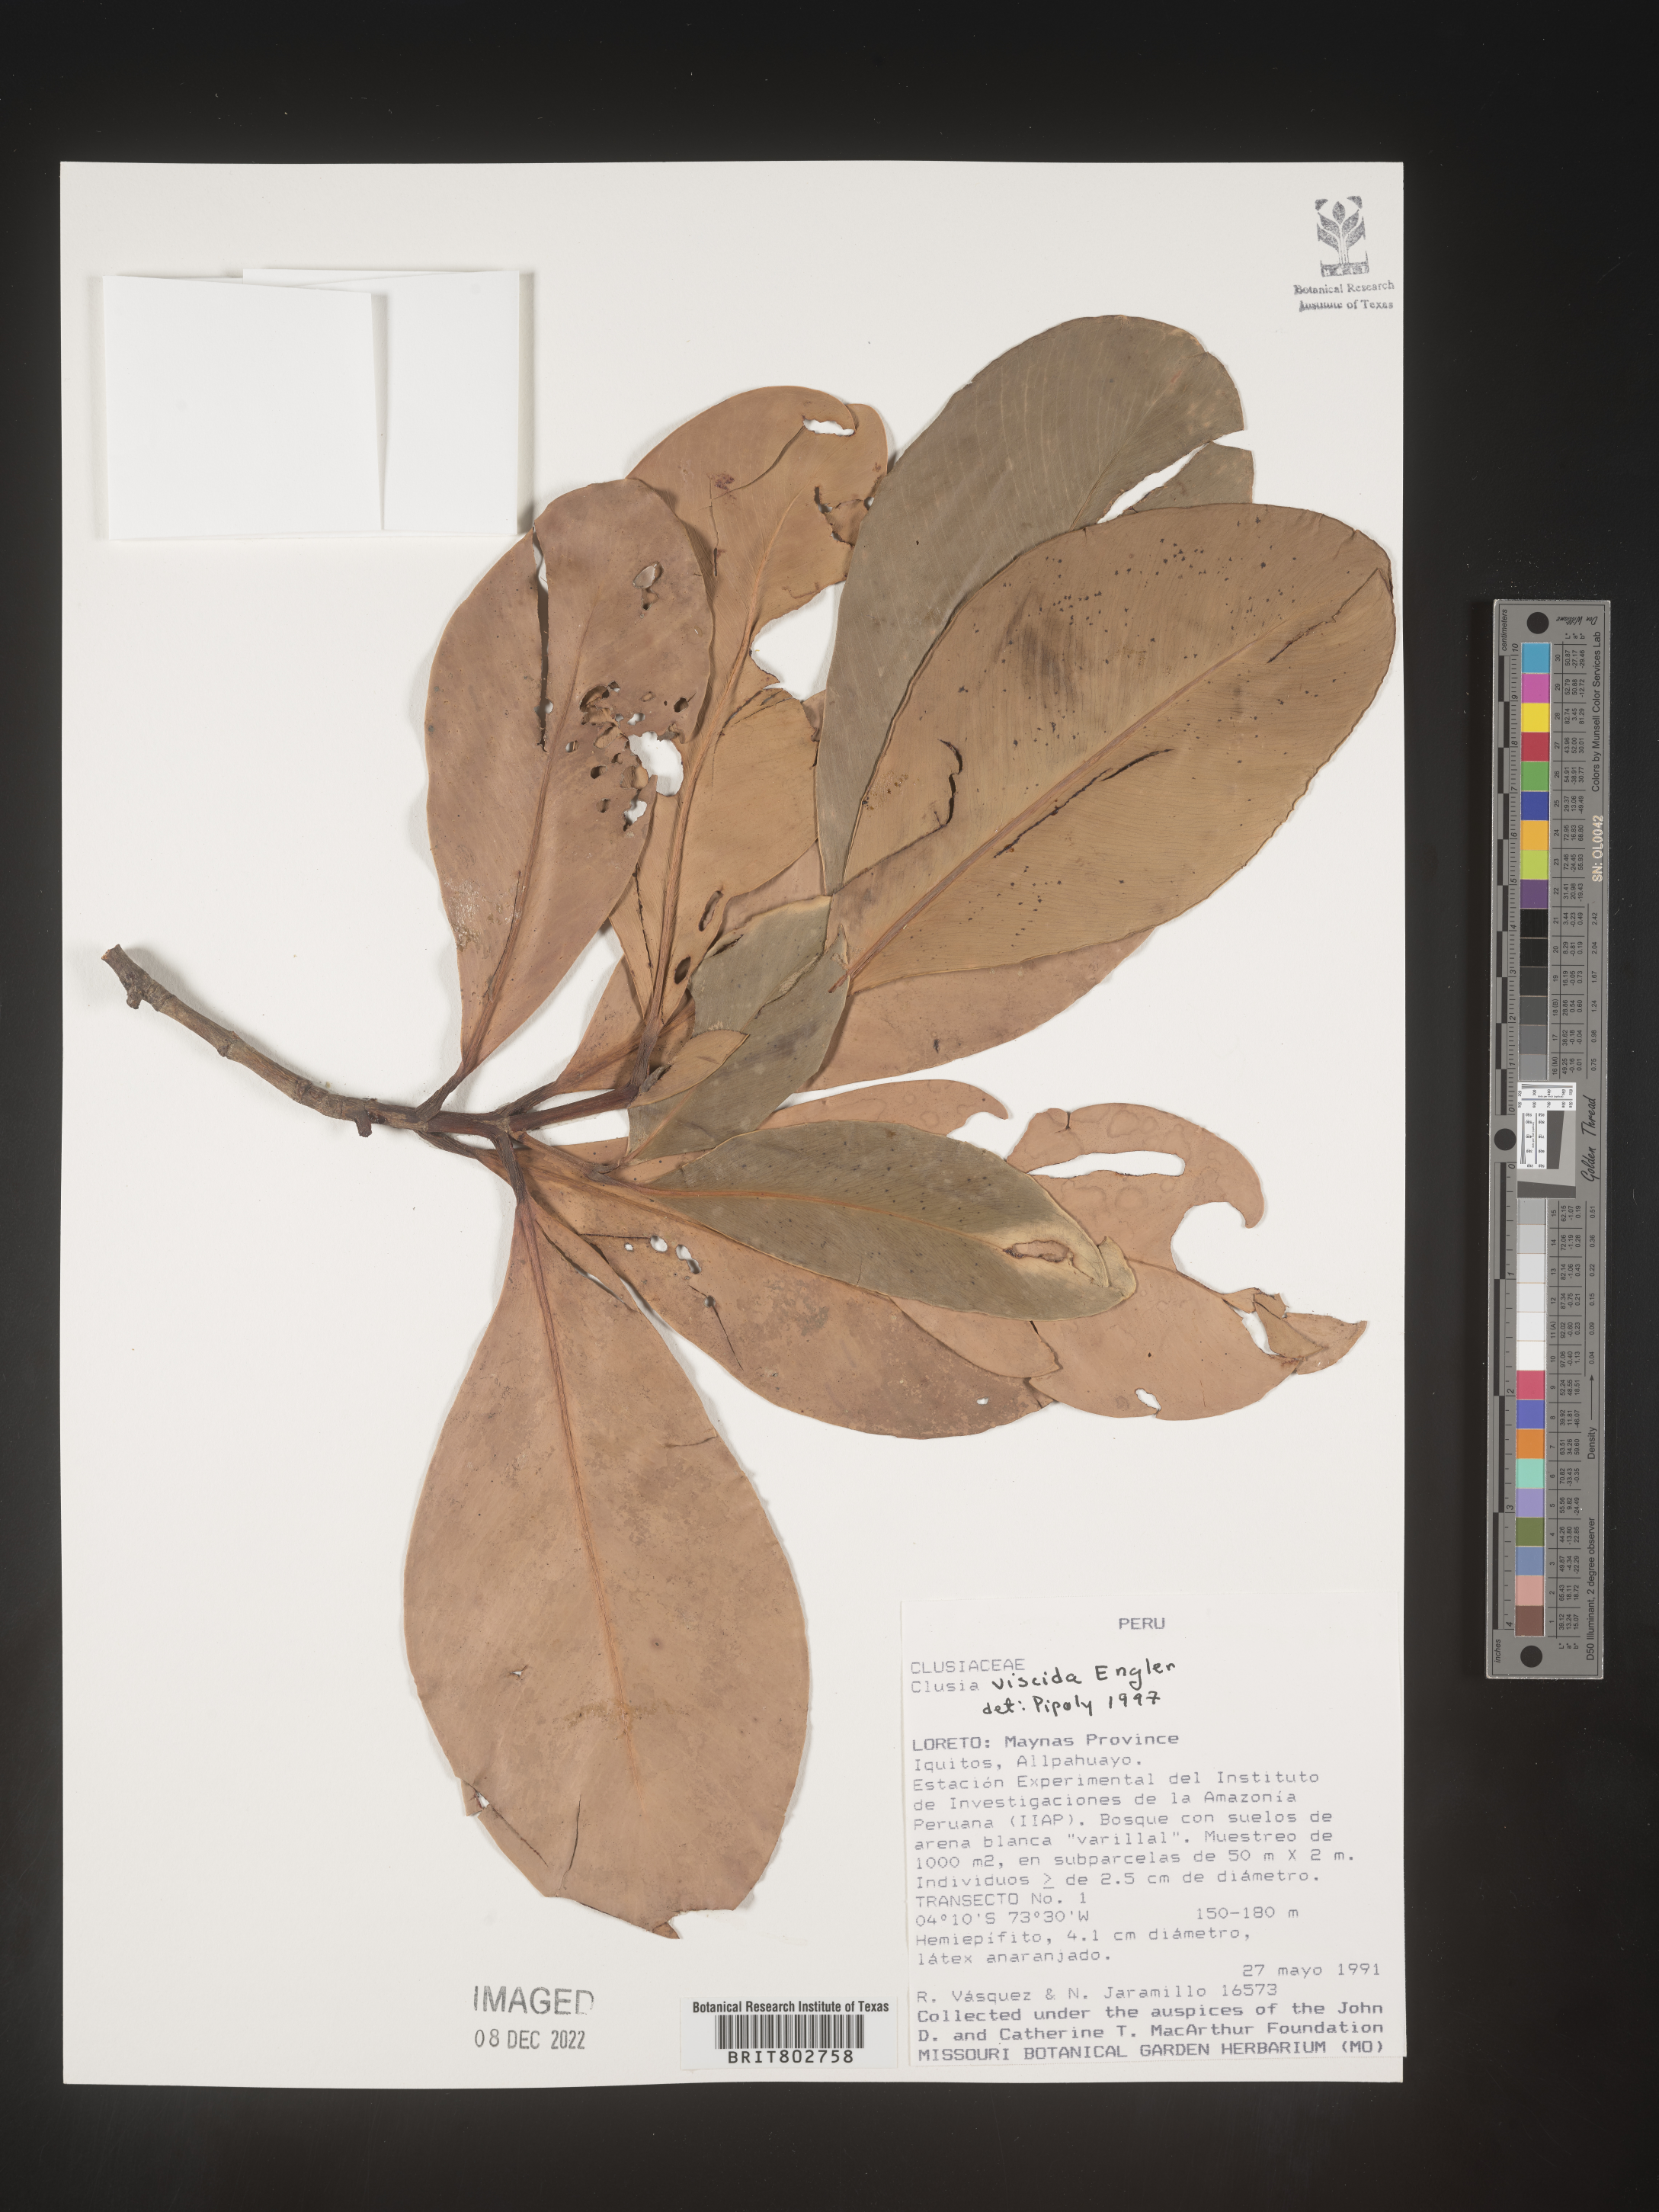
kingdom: Plantae
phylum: Tracheophyta
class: Magnoliopsida
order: Malpighiales
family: Clusiaceae
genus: Clusia
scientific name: Clusia viscida
